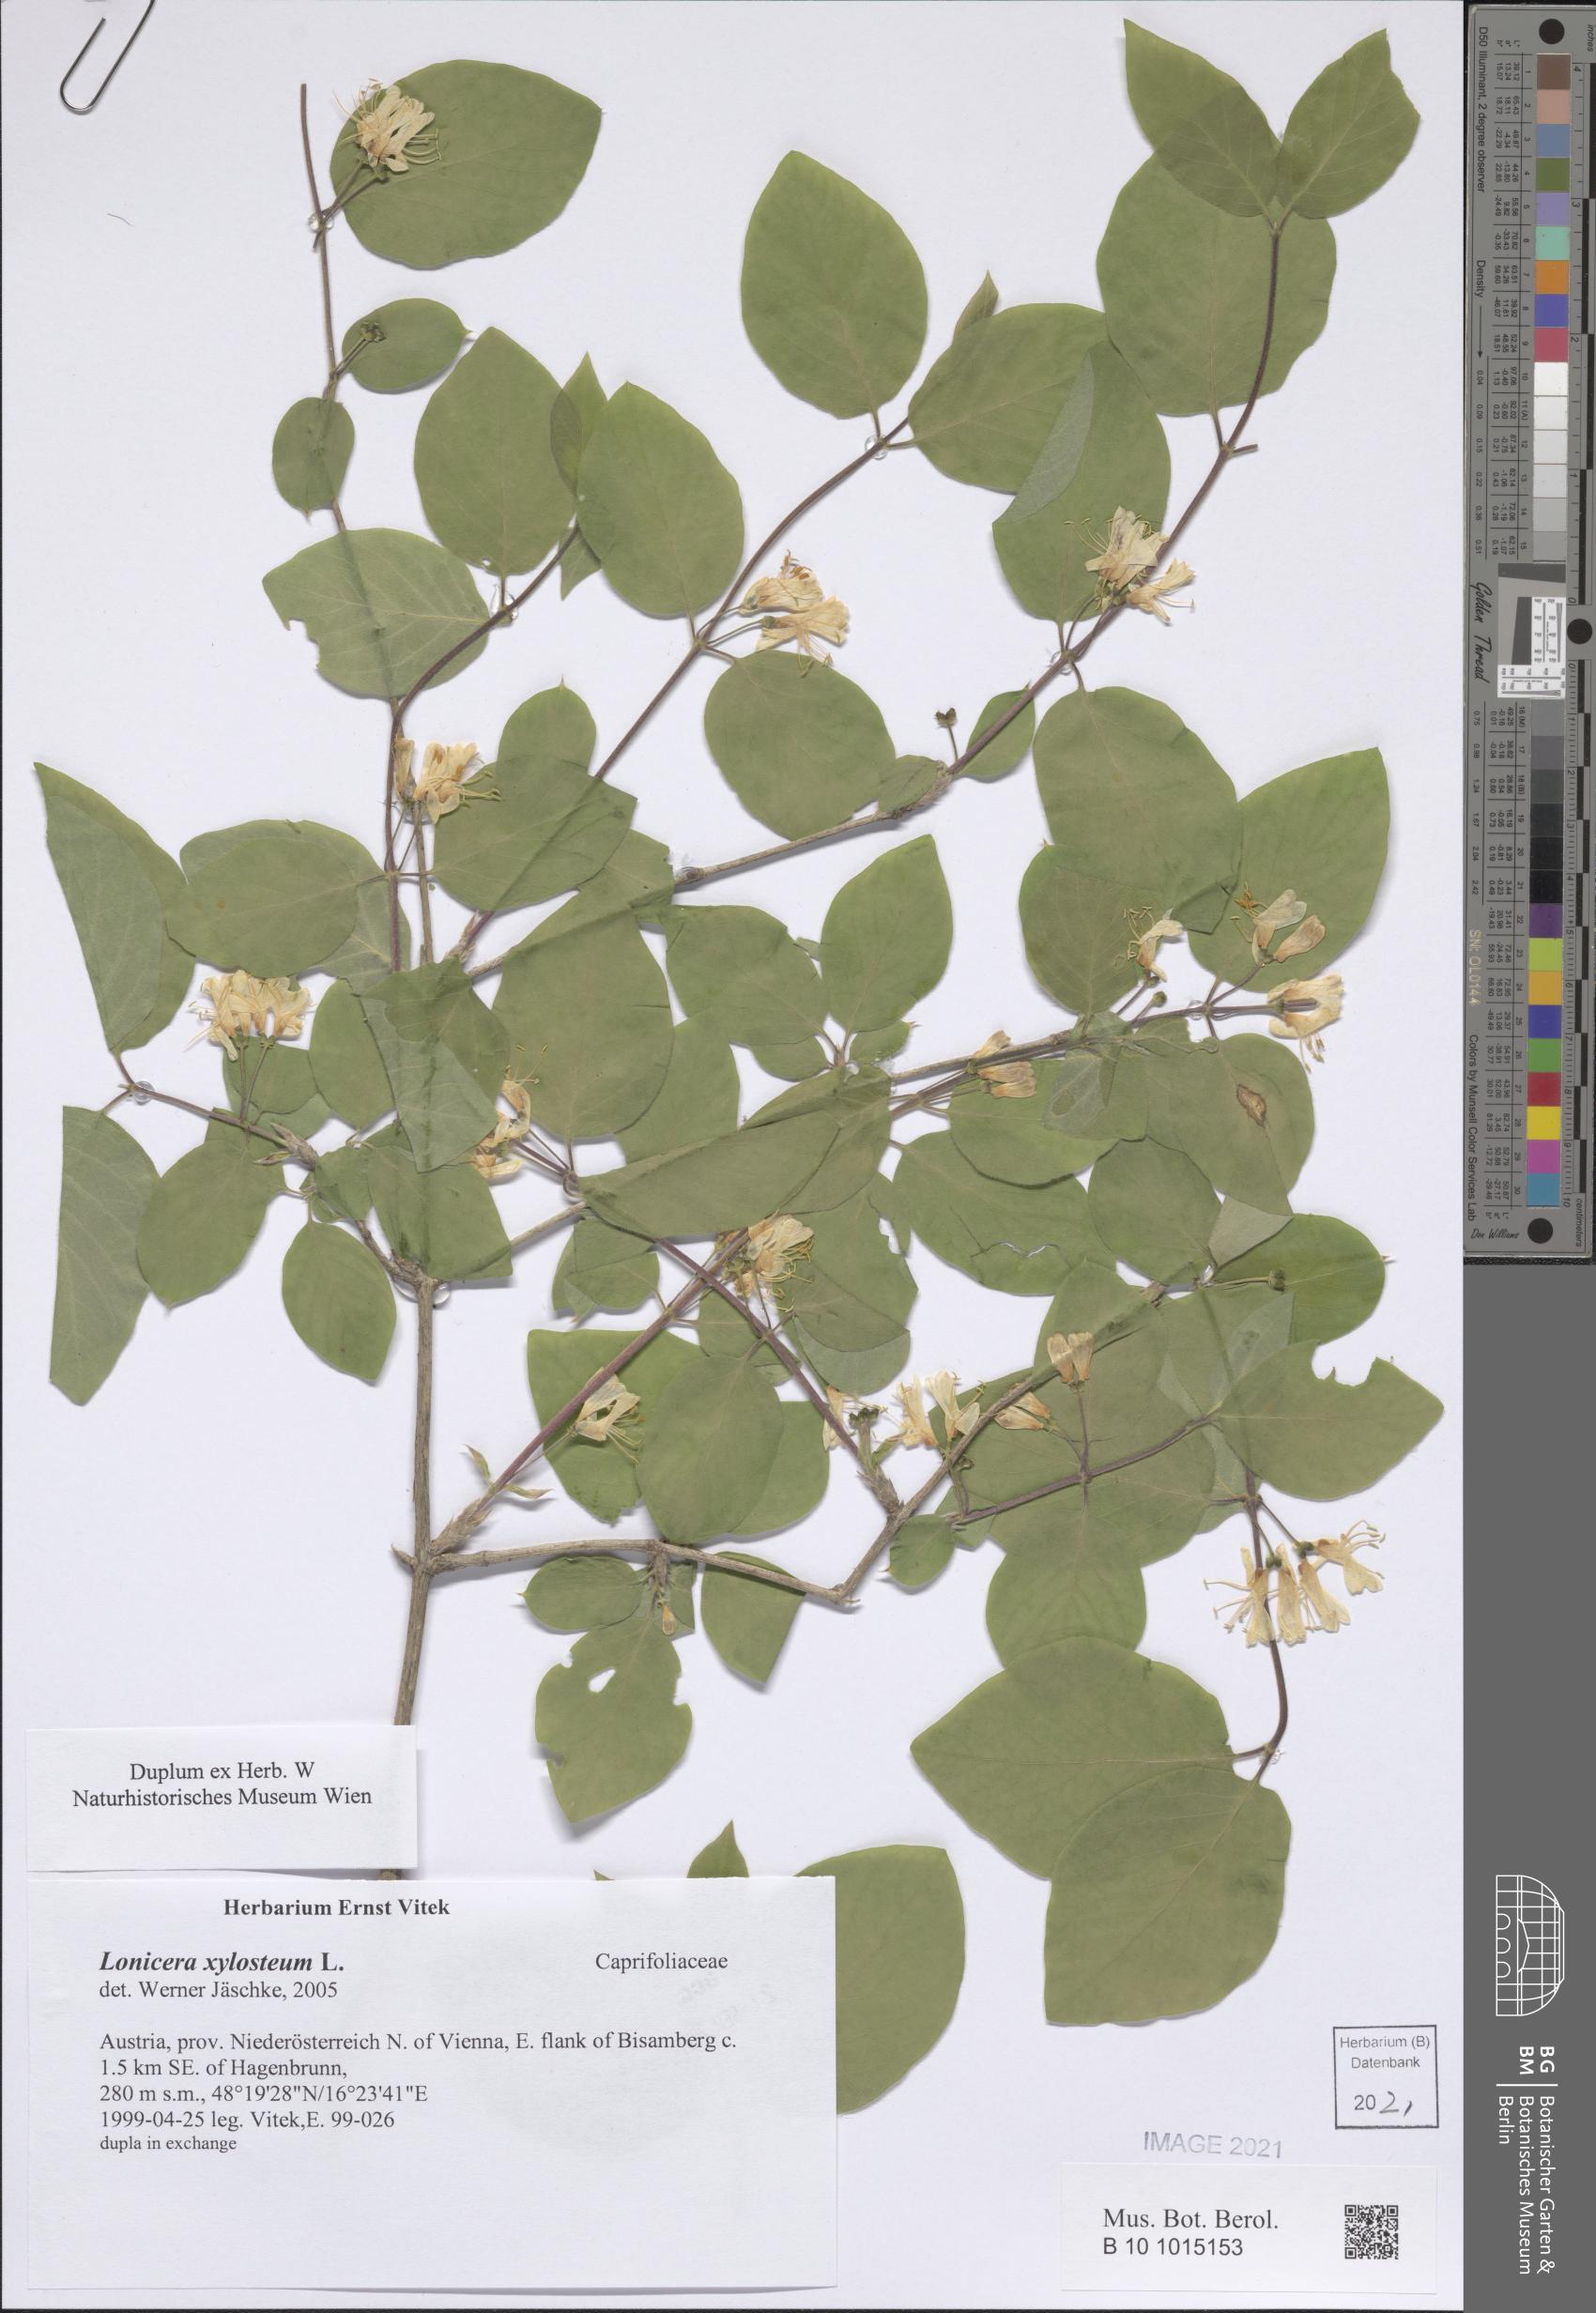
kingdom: Plantae
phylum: Tracheophyta
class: Magnoliopsida
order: Dipsacales
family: Caprifoliaceae
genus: Lonicera
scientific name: Lonicera xylosteum
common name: Fly honeysuckle
